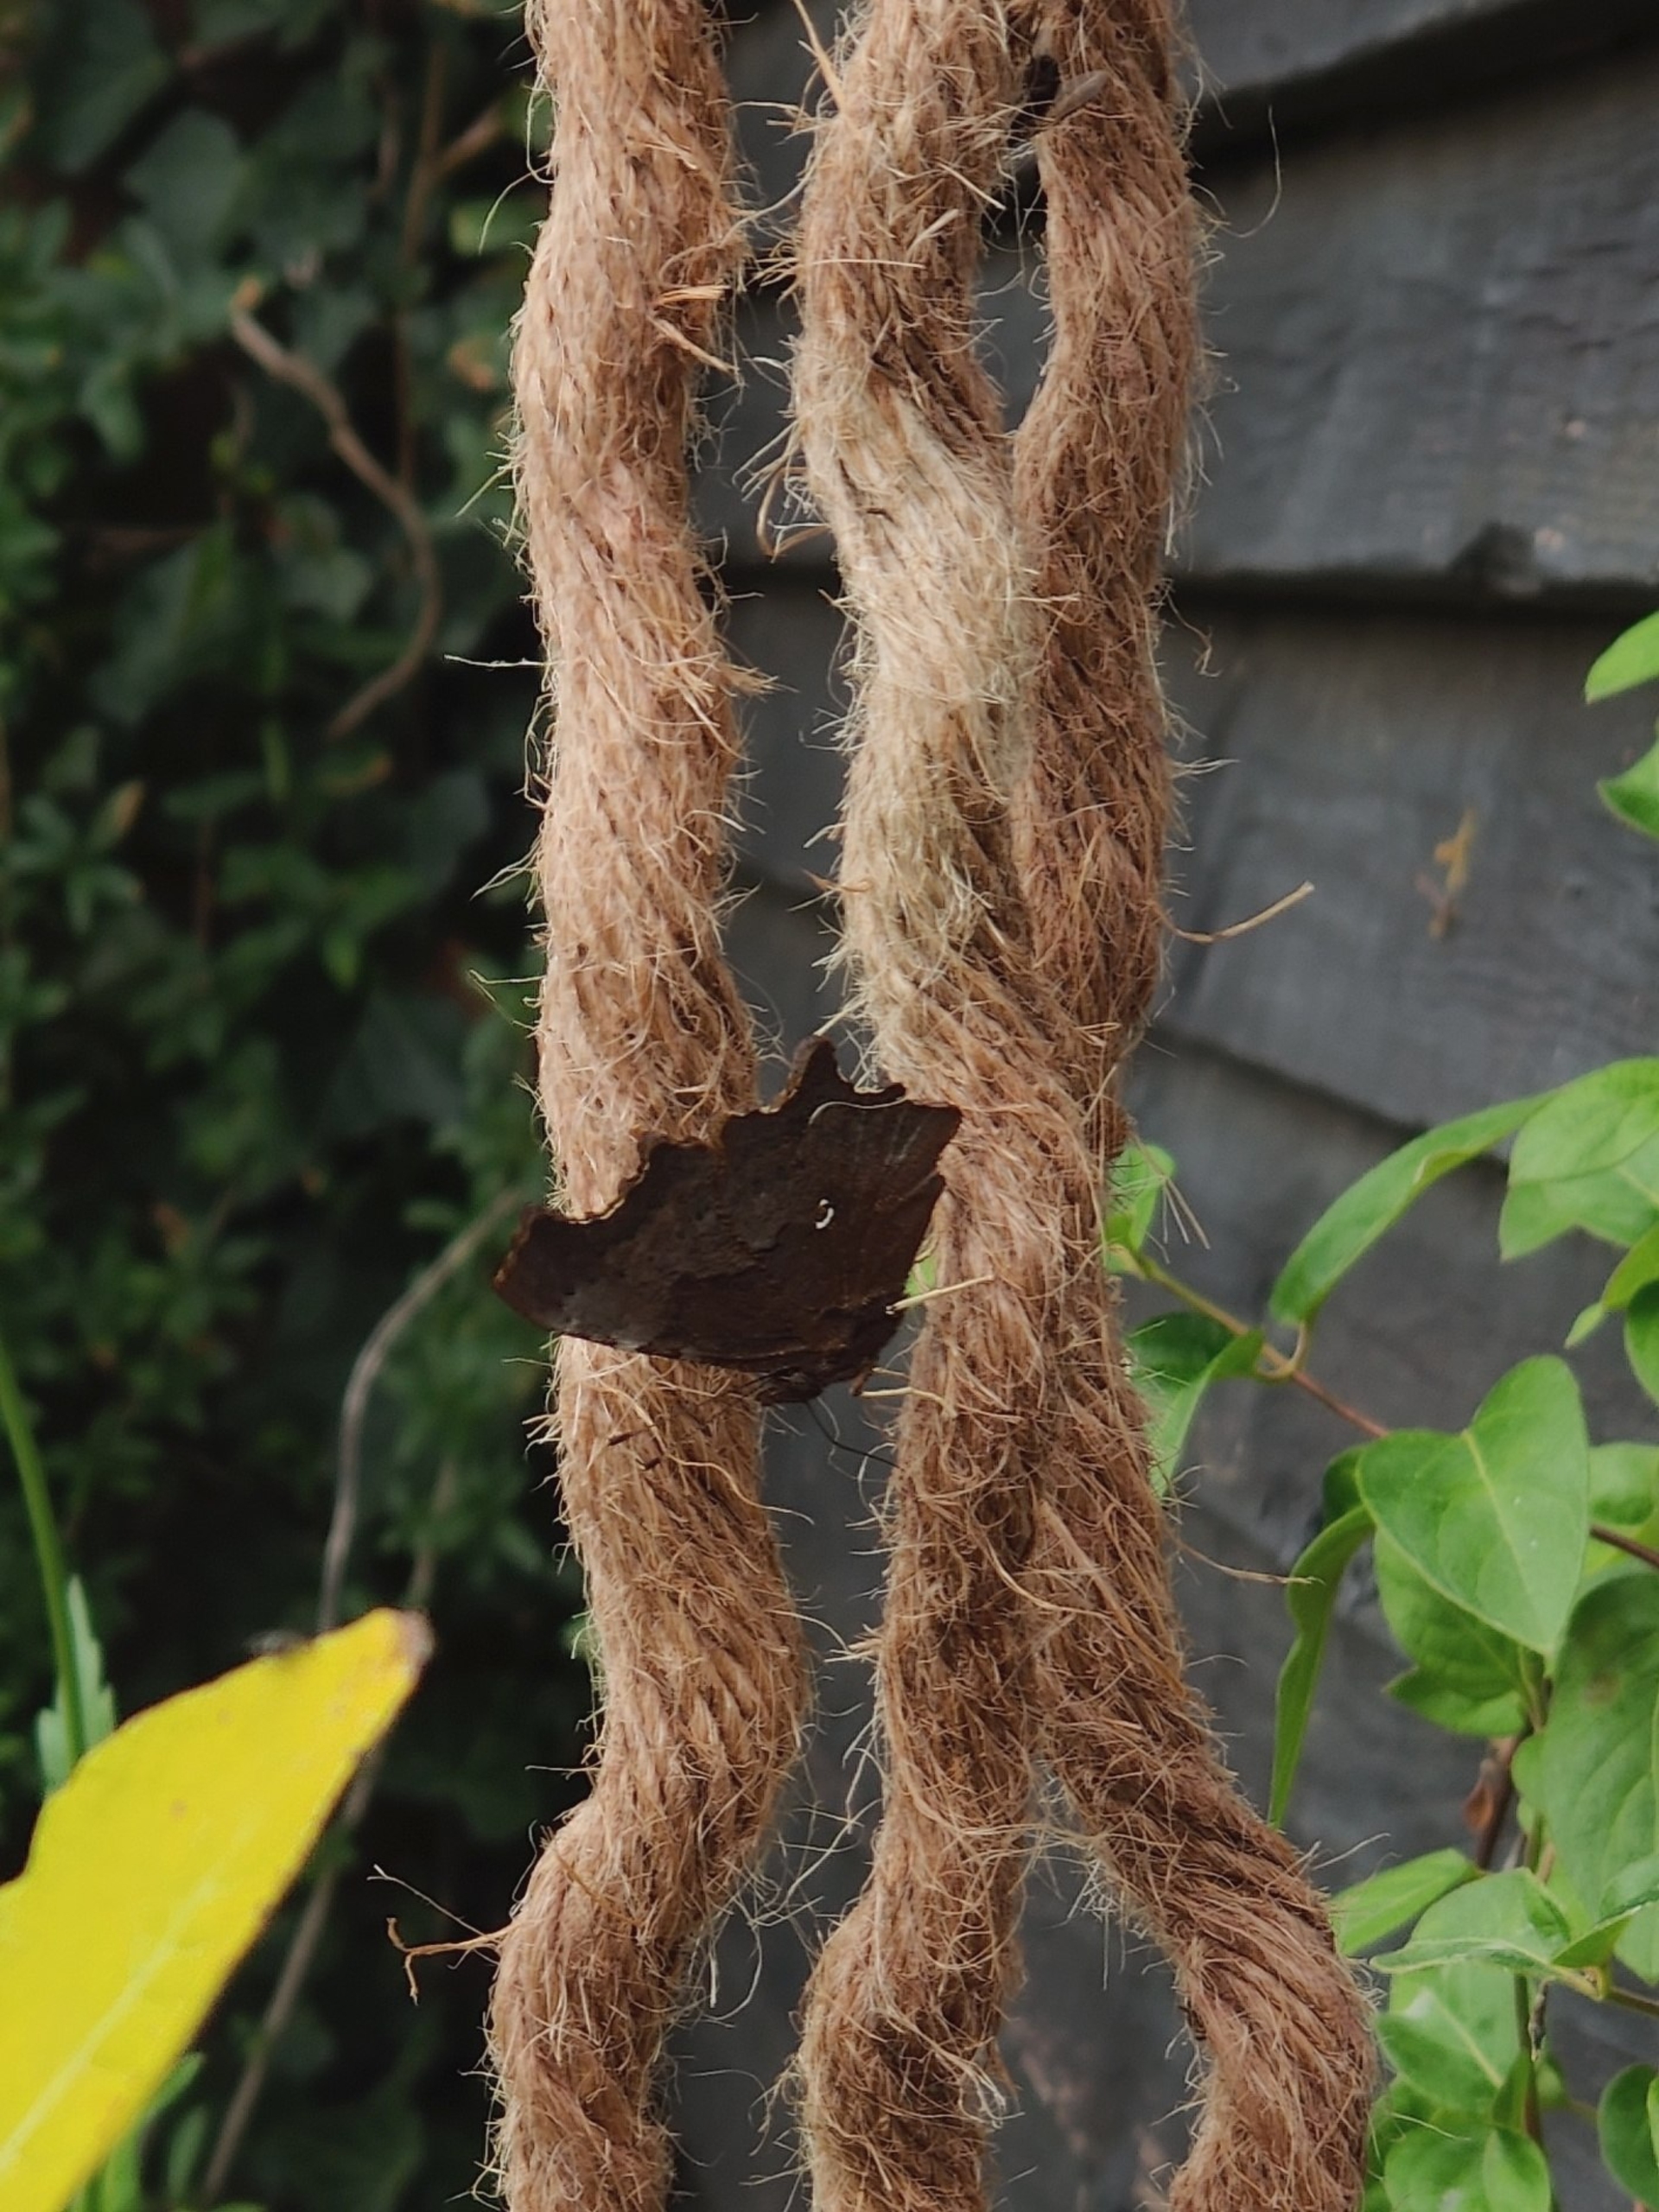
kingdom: Animalia
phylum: Arthropoda
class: Insecta
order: Lepidoptera
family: Nymphalidae
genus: Polygonia
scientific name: Polygonia c-album
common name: Det hvide C
